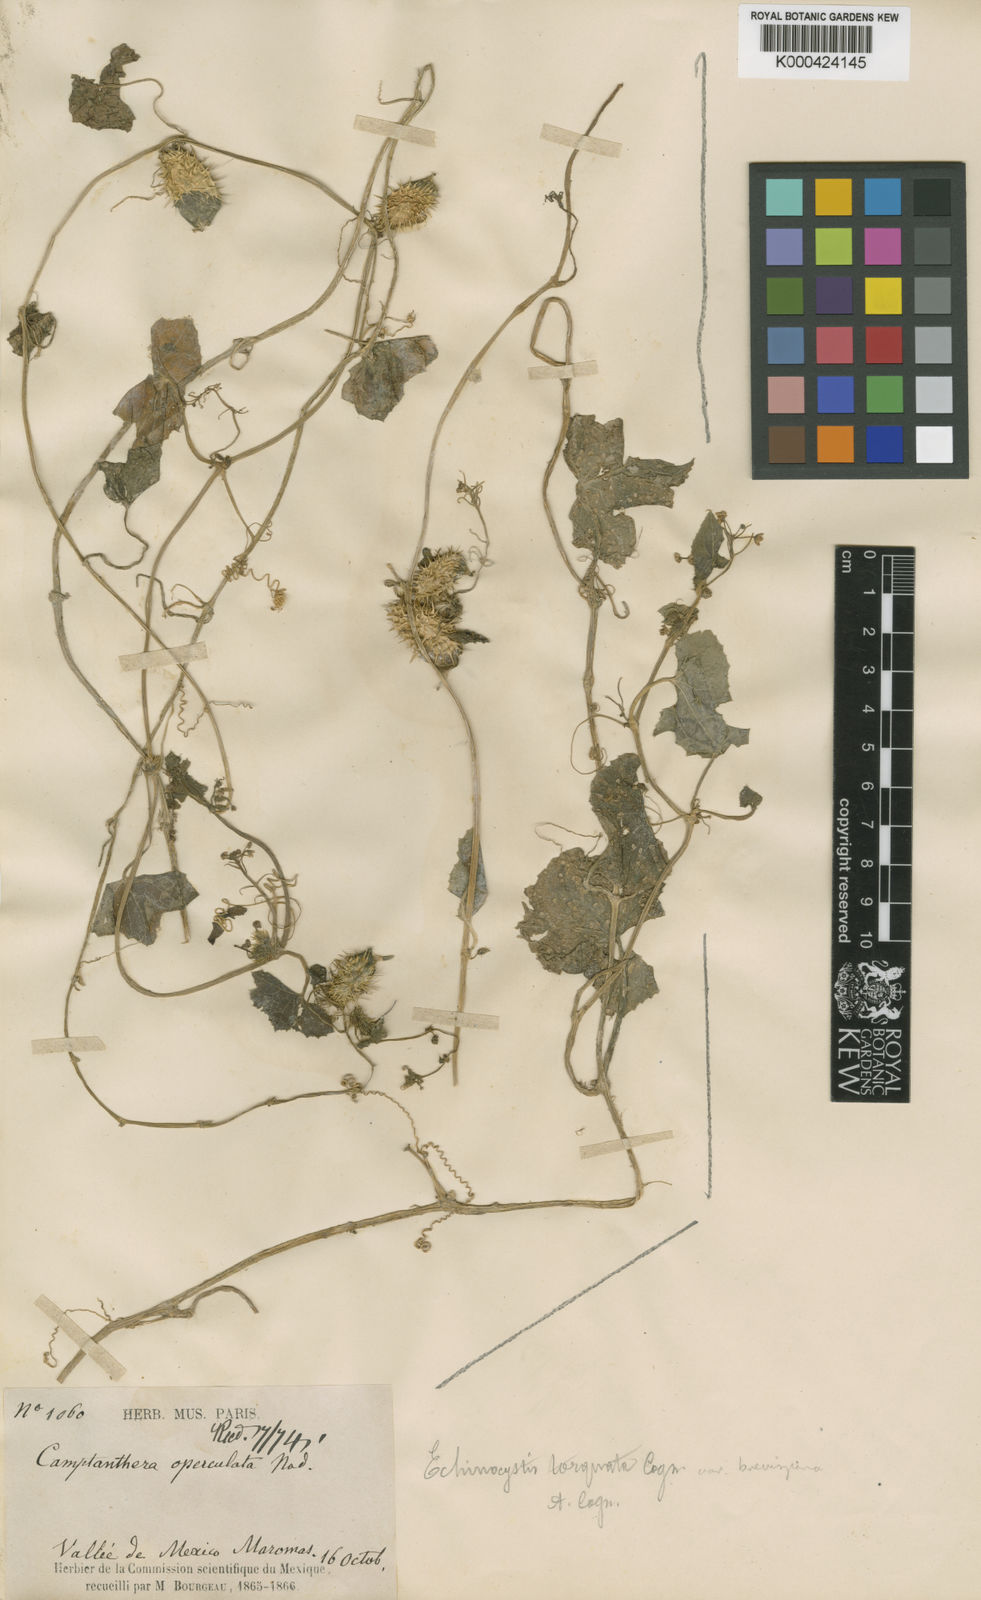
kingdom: Plantae
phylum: Tracheophyta
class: Magnoliopsida
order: Cucurbitales
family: Cucurbitaceae
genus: Echinopepon
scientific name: Echinopepon torquatus
